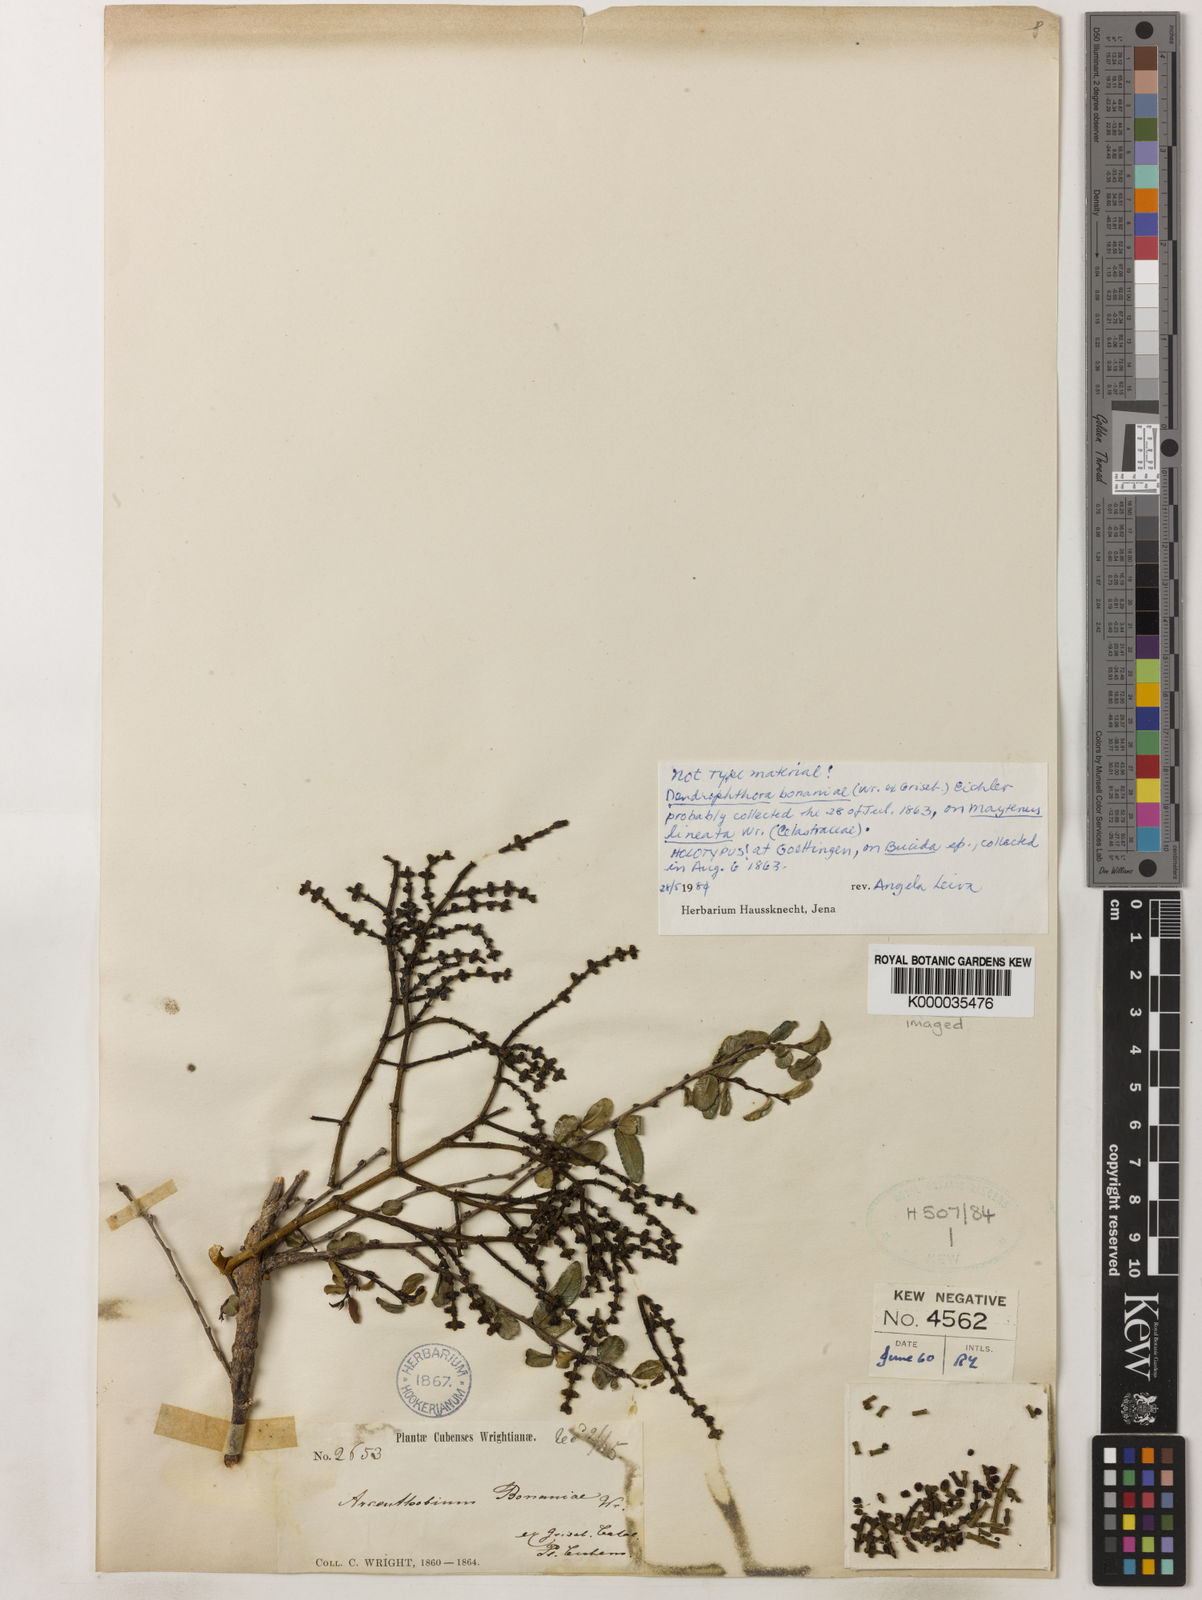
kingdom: Plantae
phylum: Tracheophyta
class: Magnoliopsida
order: Santalales
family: Viscaceae
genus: Dendrophthora
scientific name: Dendrophthora bonaniae
